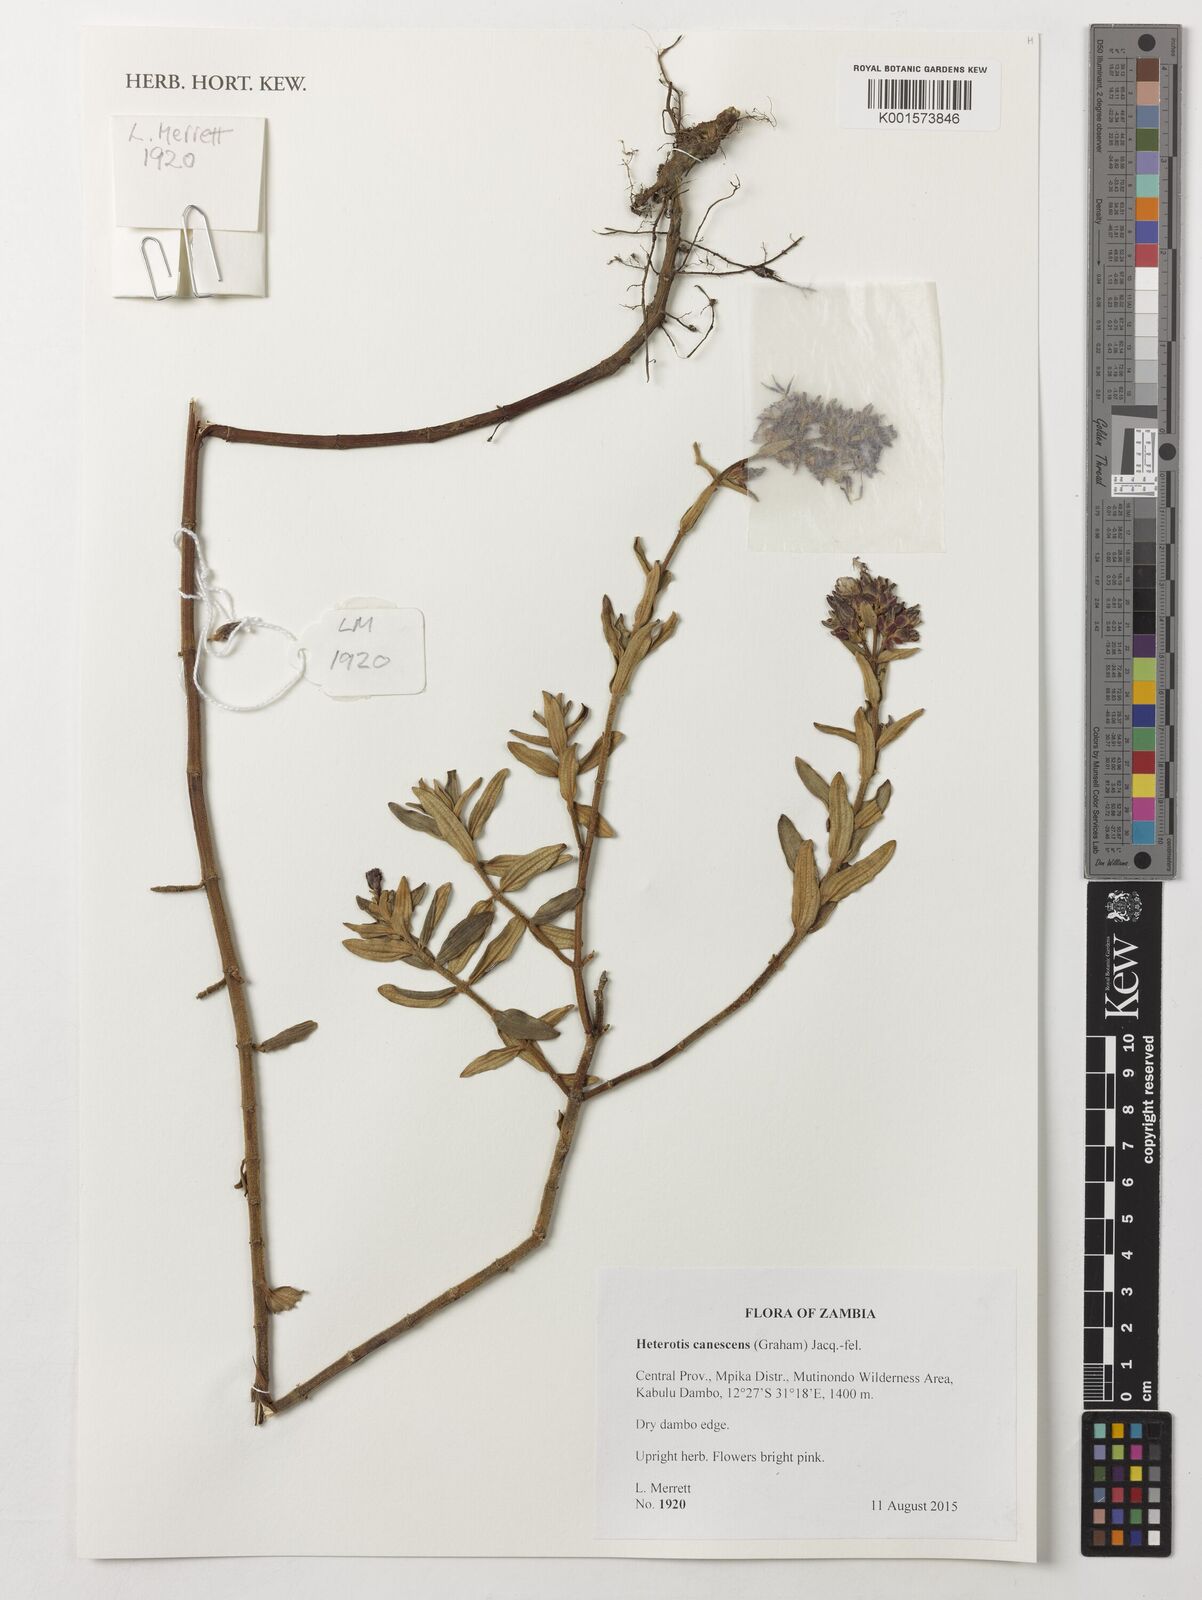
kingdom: Plantae
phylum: Tracheophyta
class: Magnoliopsida
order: Myrtales
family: Melastomataceae
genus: Argyrella
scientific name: Argyrella canescens
